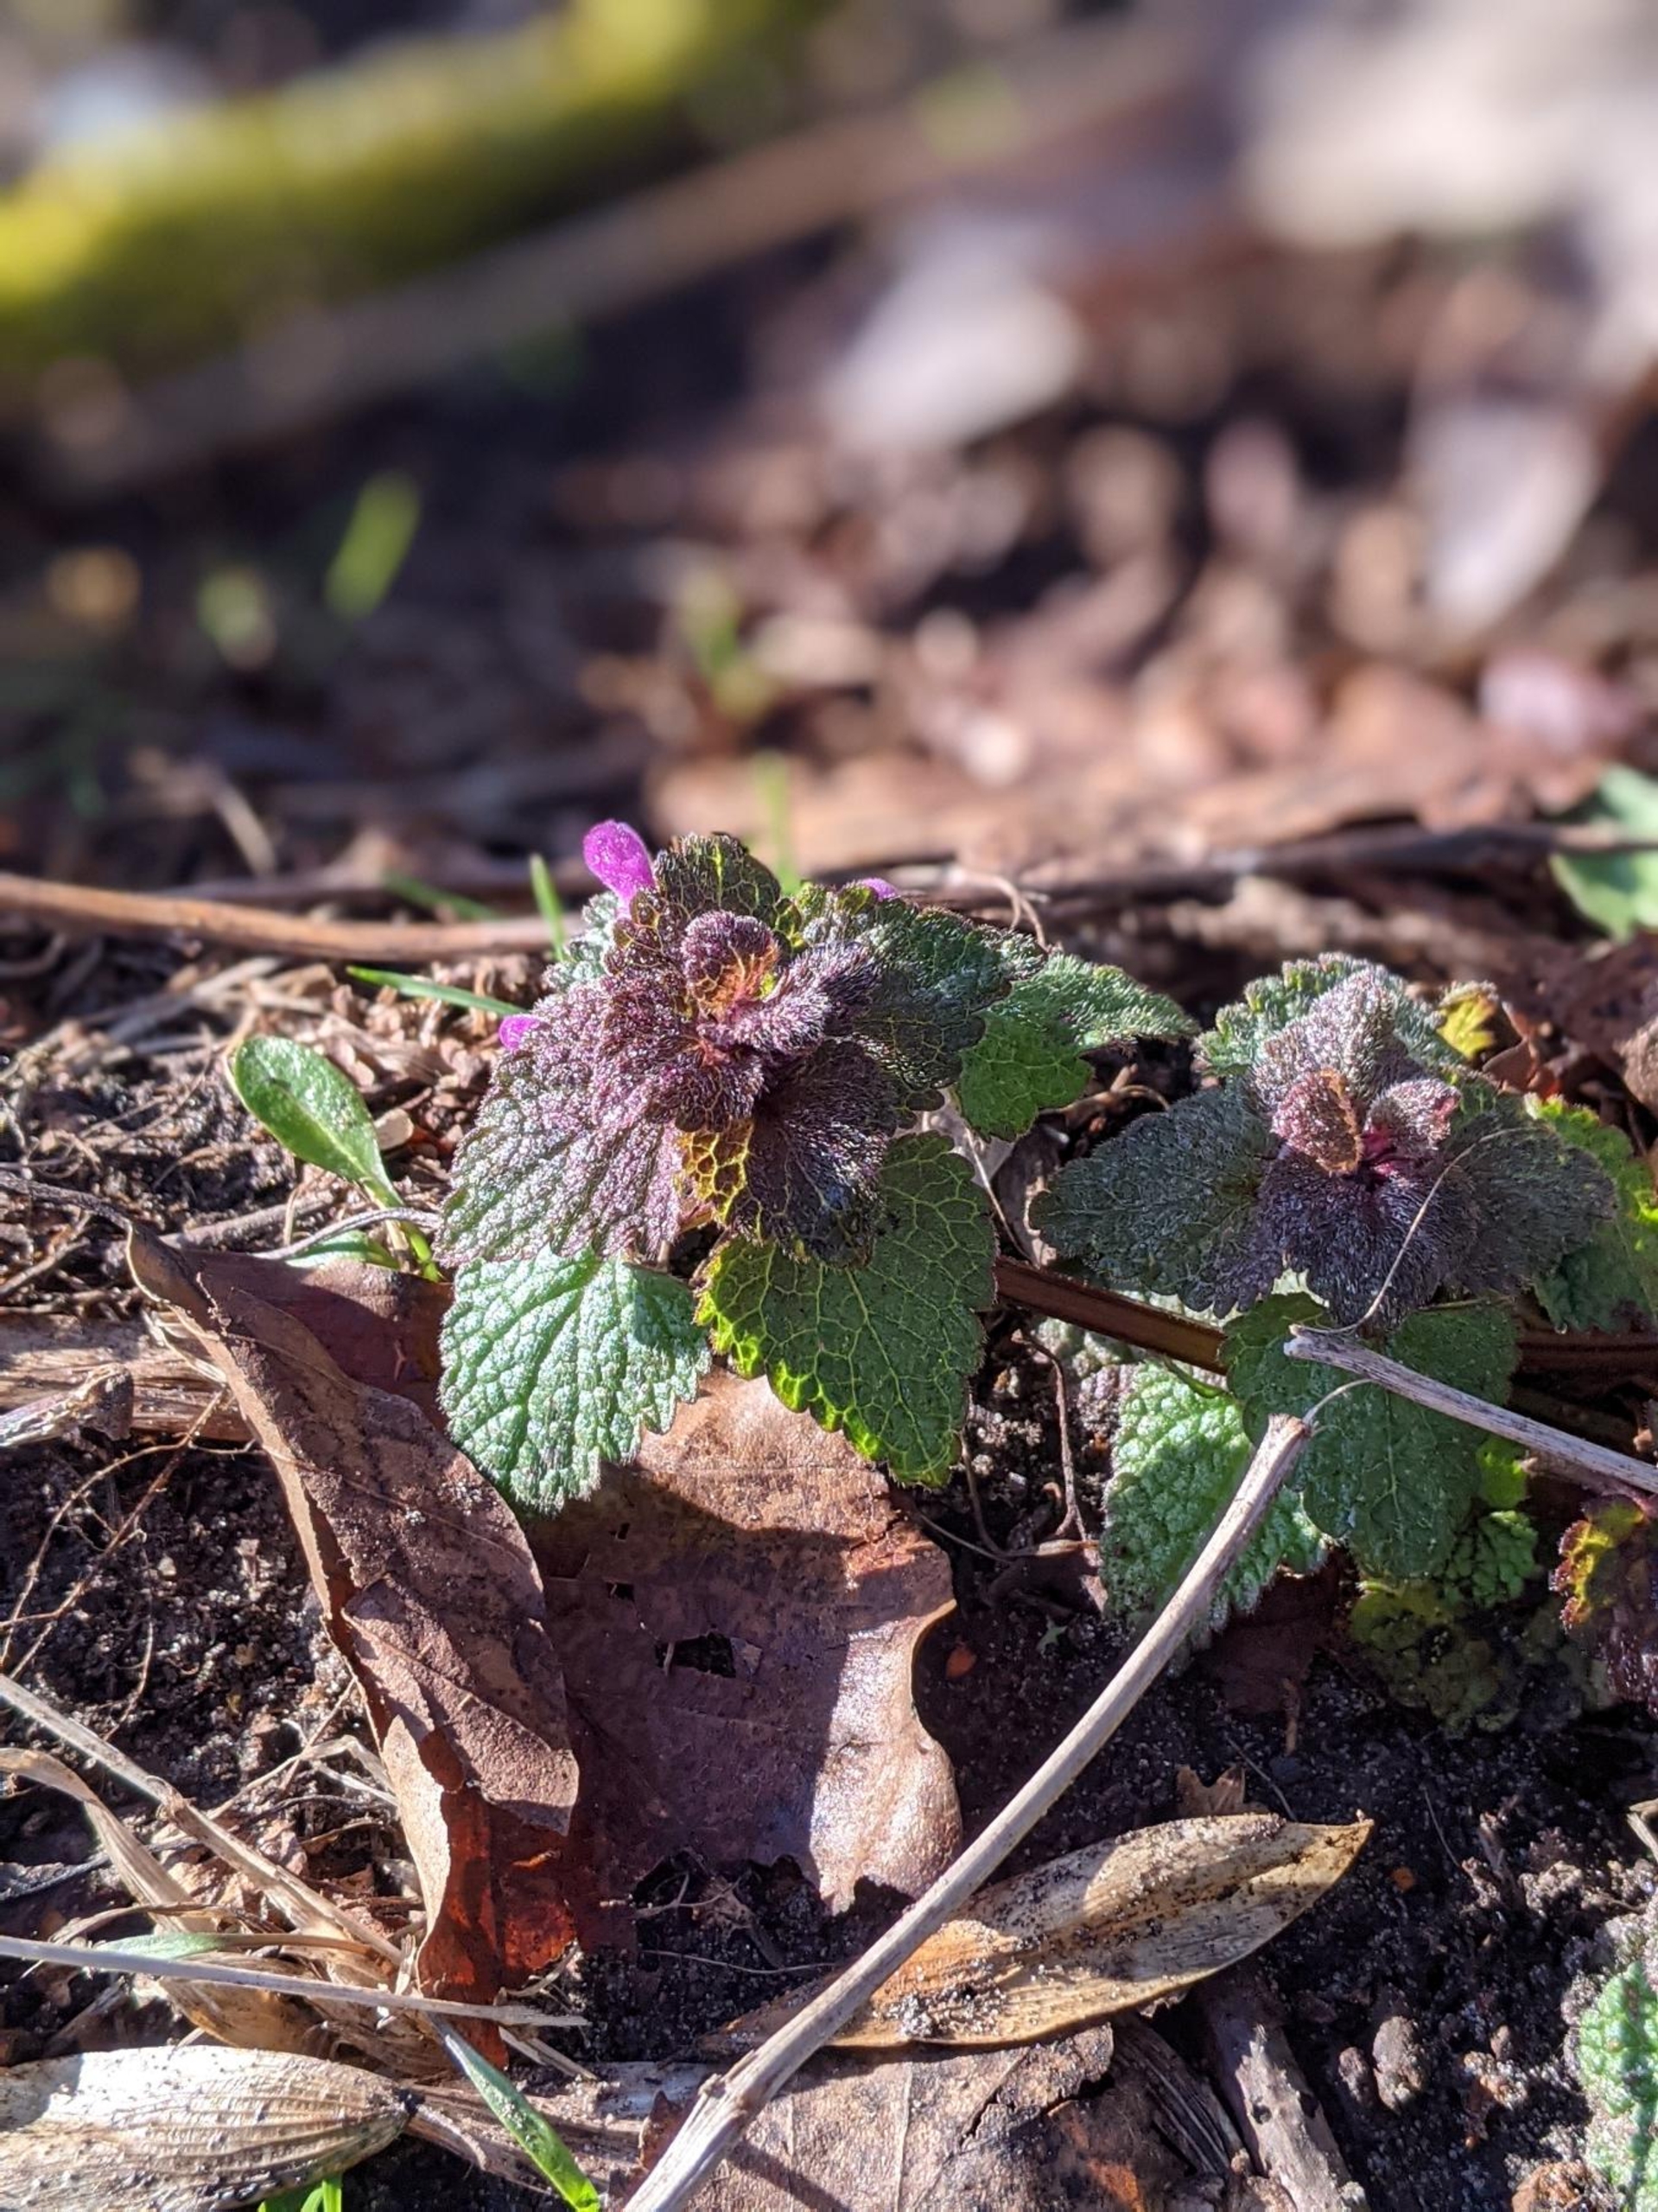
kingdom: Plantae
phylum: Tracheophyta
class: Magnoliopsida
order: Lamiales
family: Lamiaceae
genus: Lamium
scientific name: Lamium purpureum
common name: Rød tvetand
